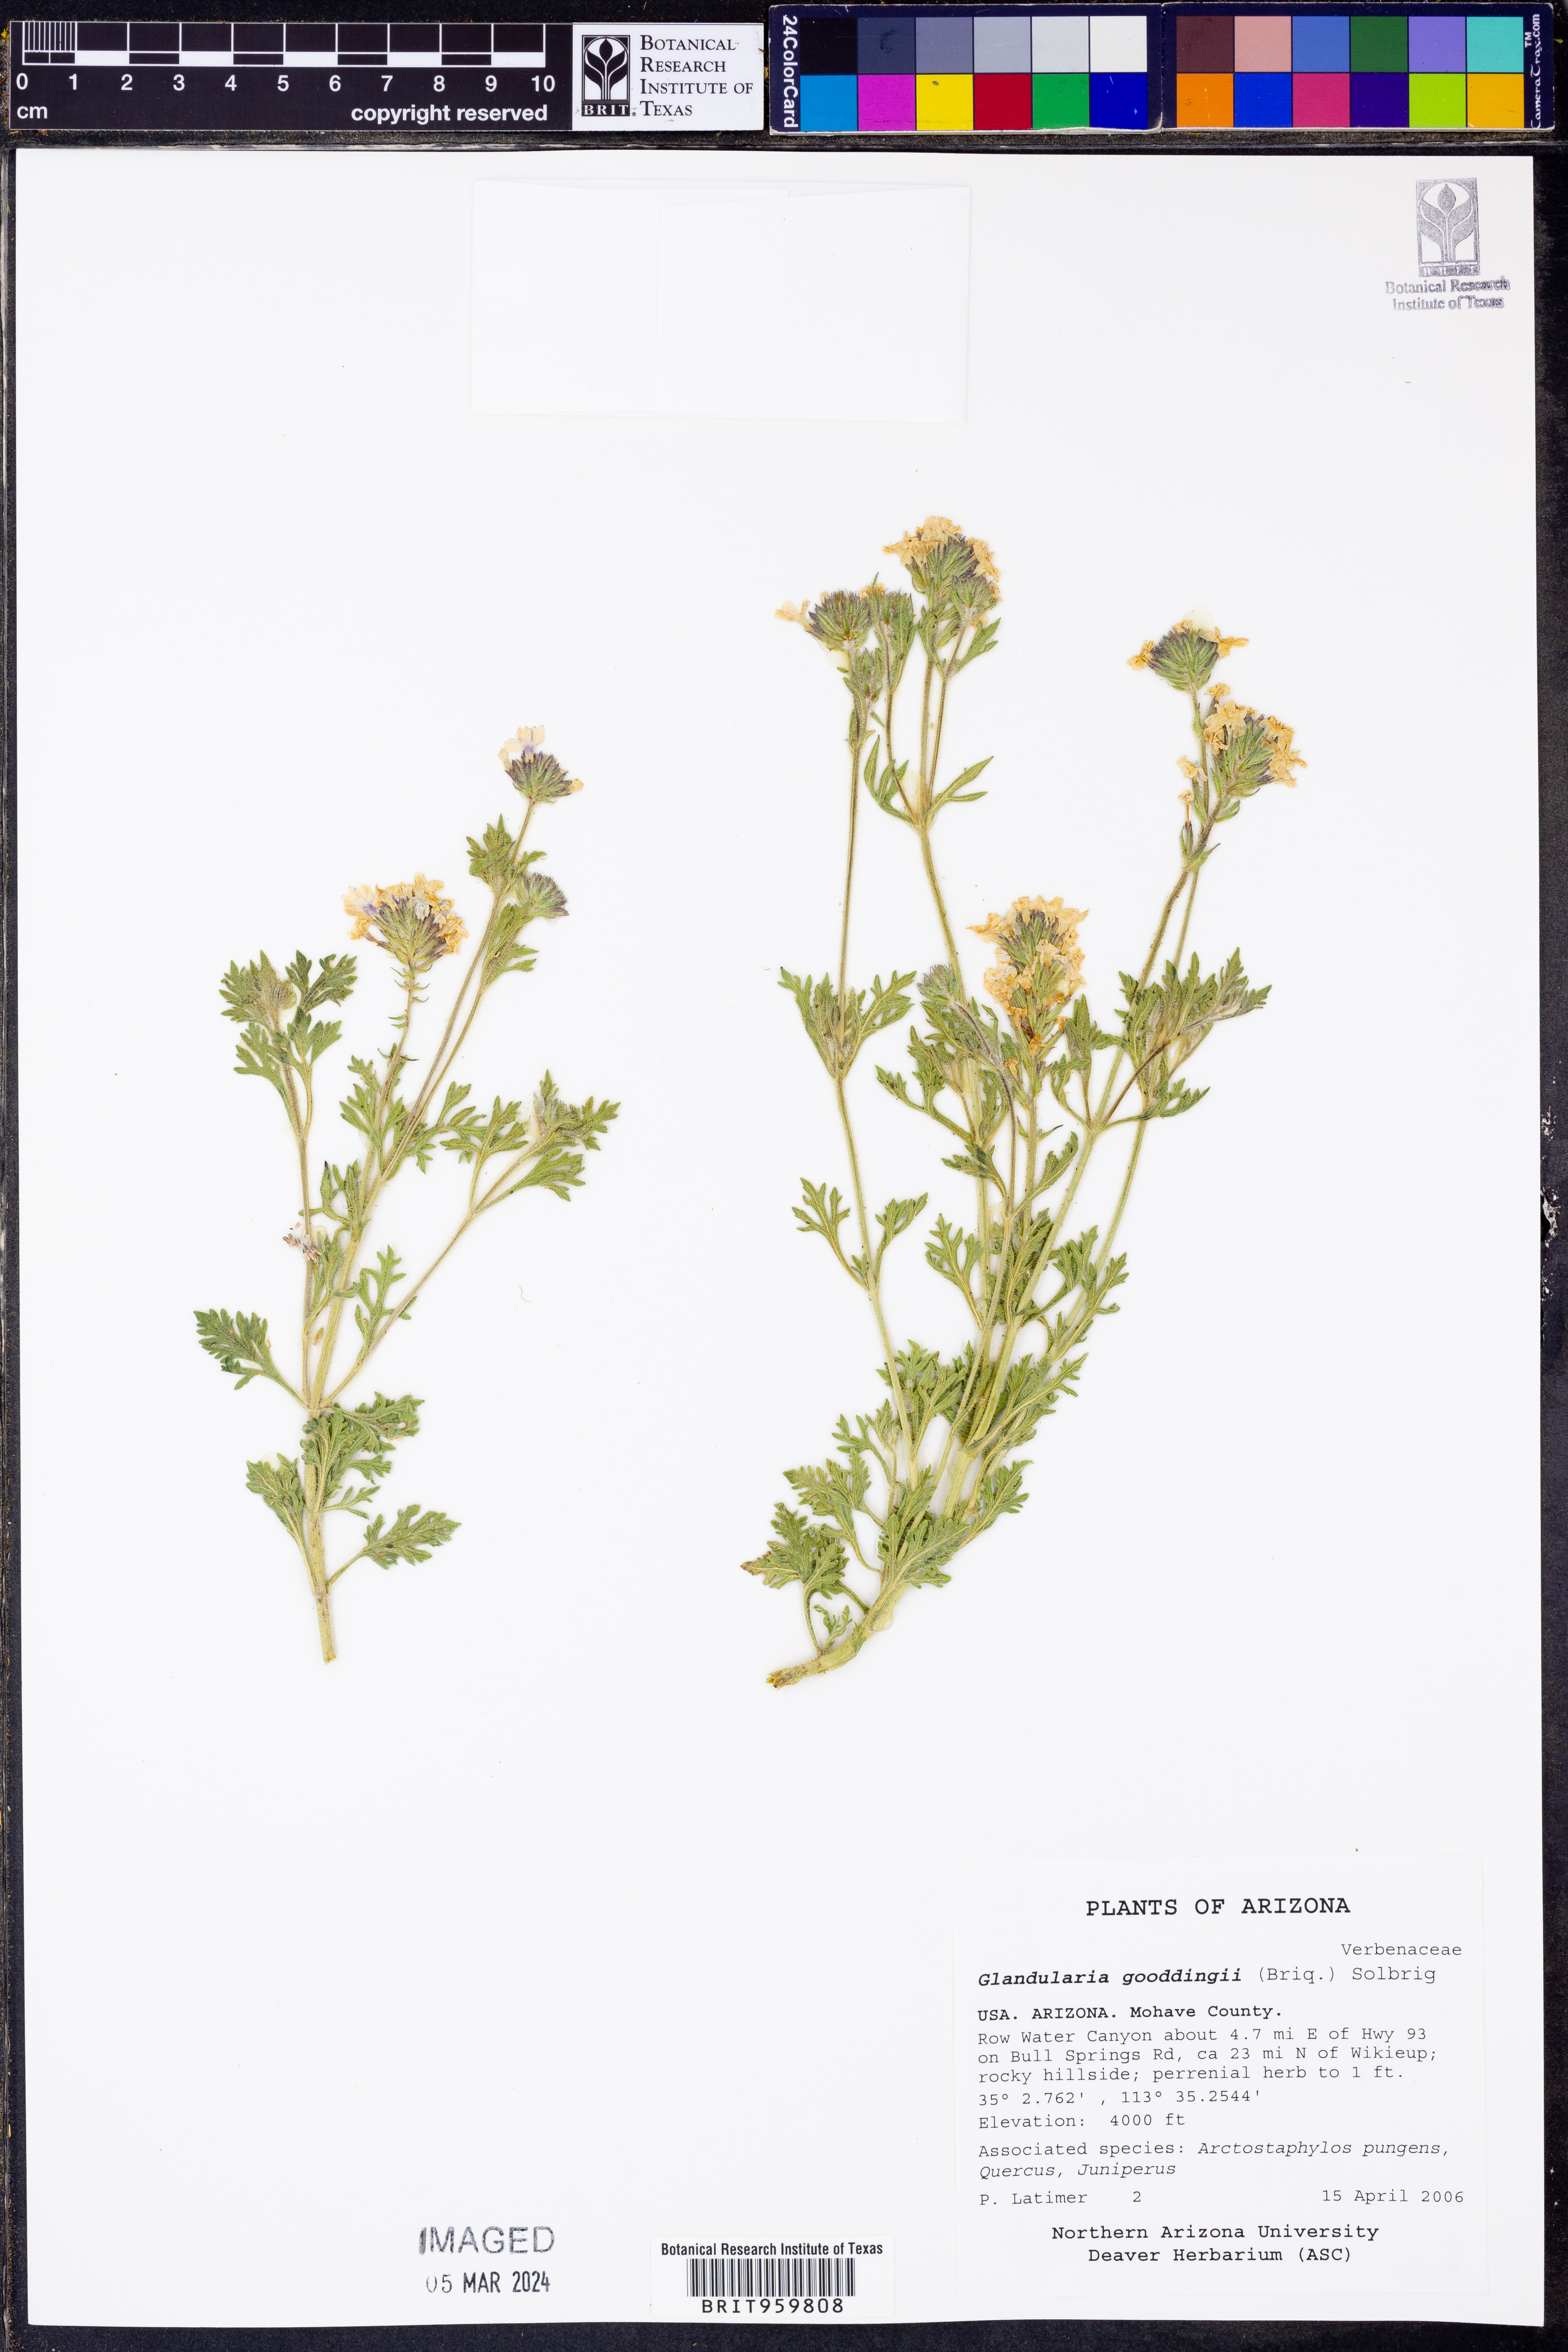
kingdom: Plantae
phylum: Tracheophyta
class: Magnoliopsida
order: Lamiales
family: Verbenaceae
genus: Verbena
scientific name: Verbena gooddingii
